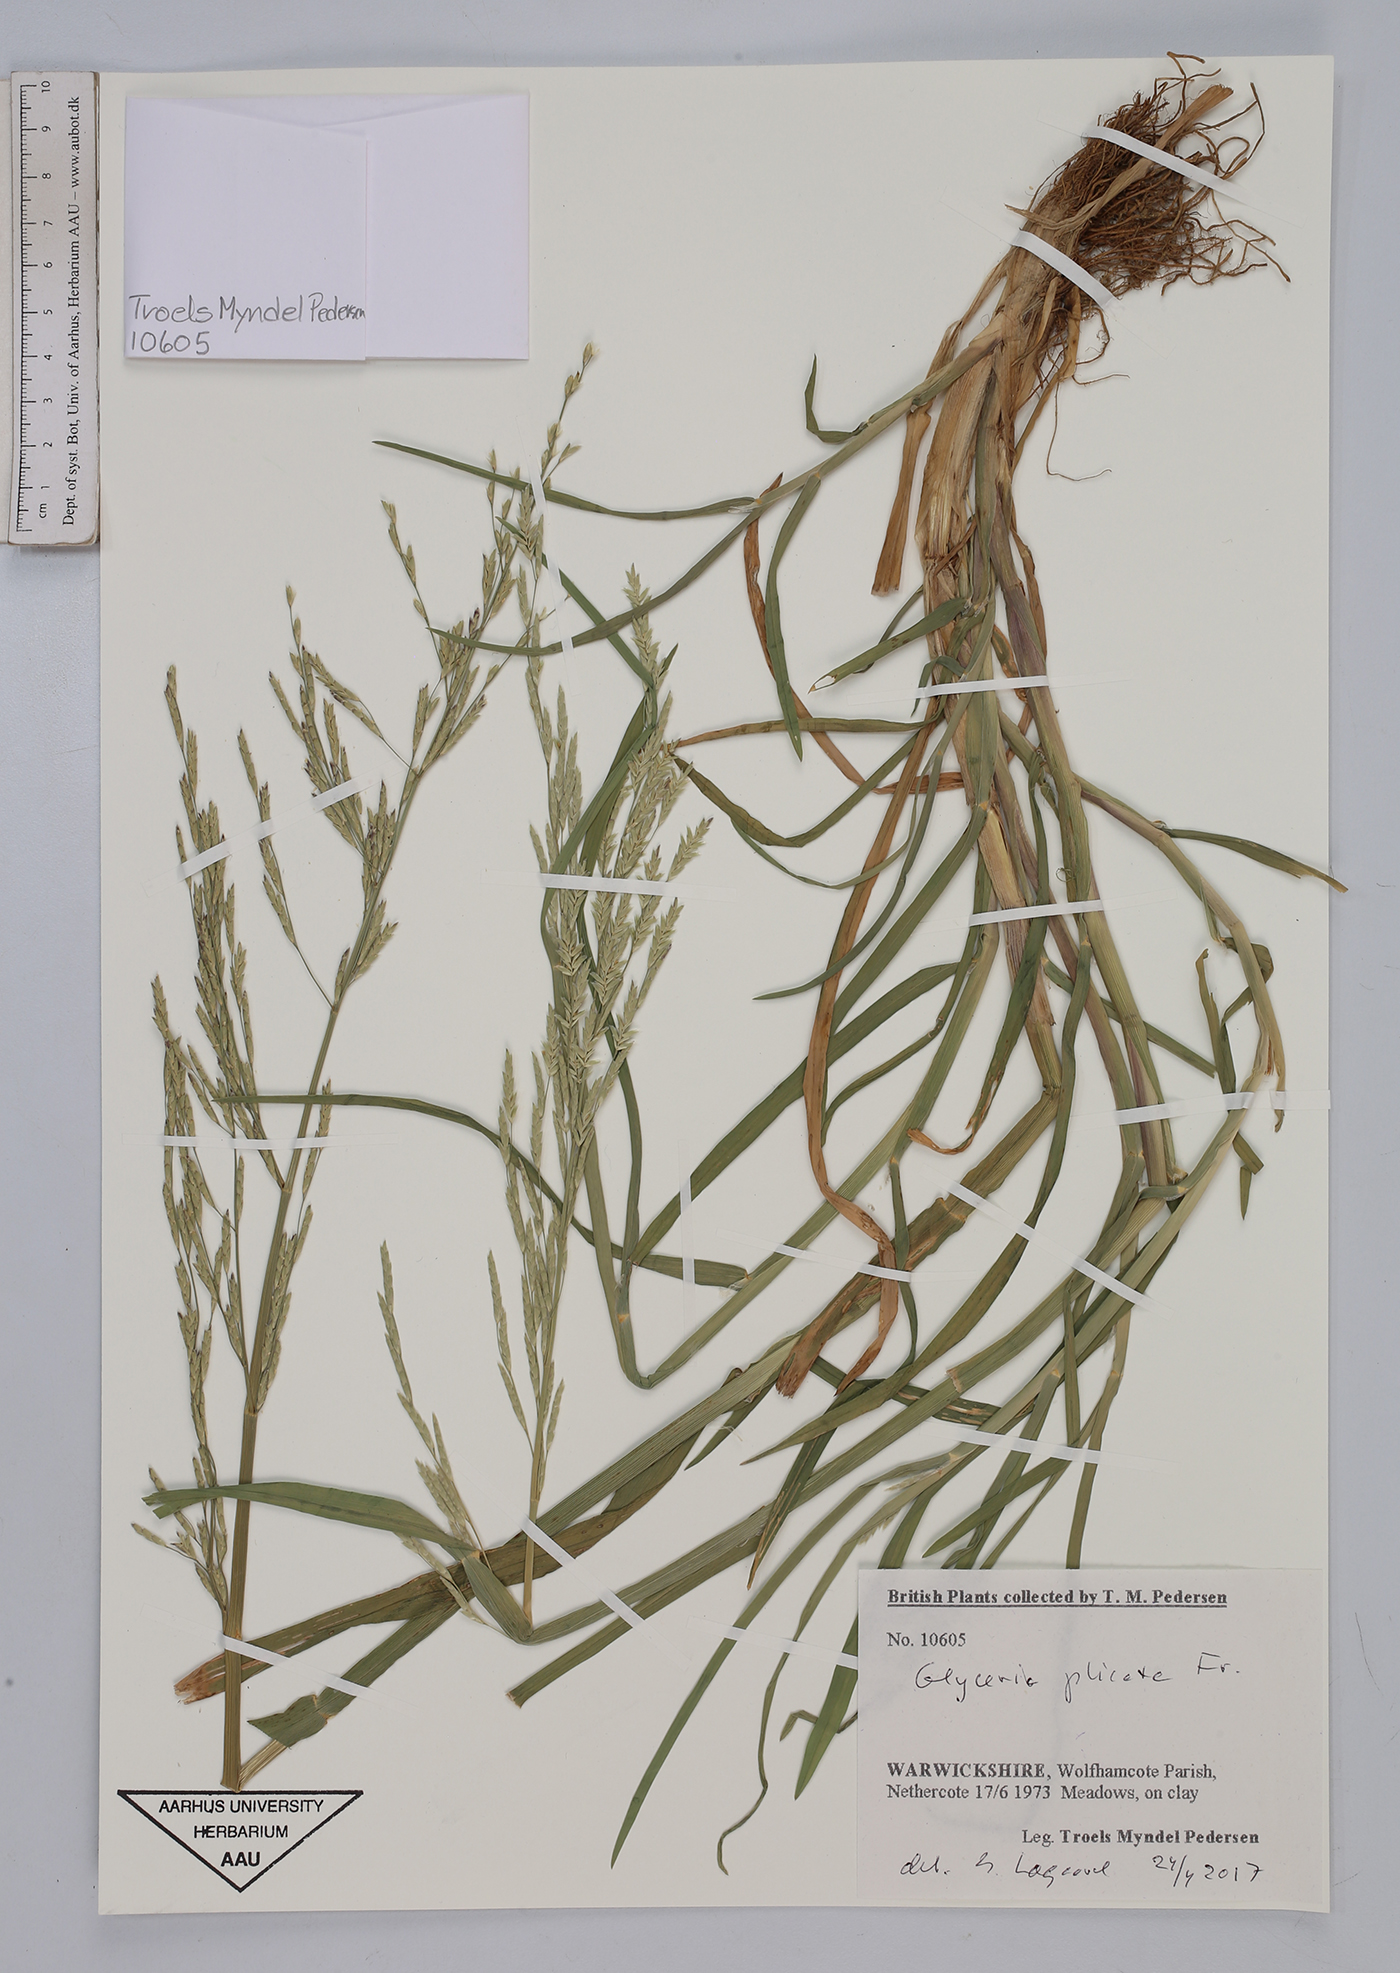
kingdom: Plantae
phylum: Tracheophyta
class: Liliopsida
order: Poales
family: Poaceae
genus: Glyceria
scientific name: Glyceria notata
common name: Plicate sweet-grass
